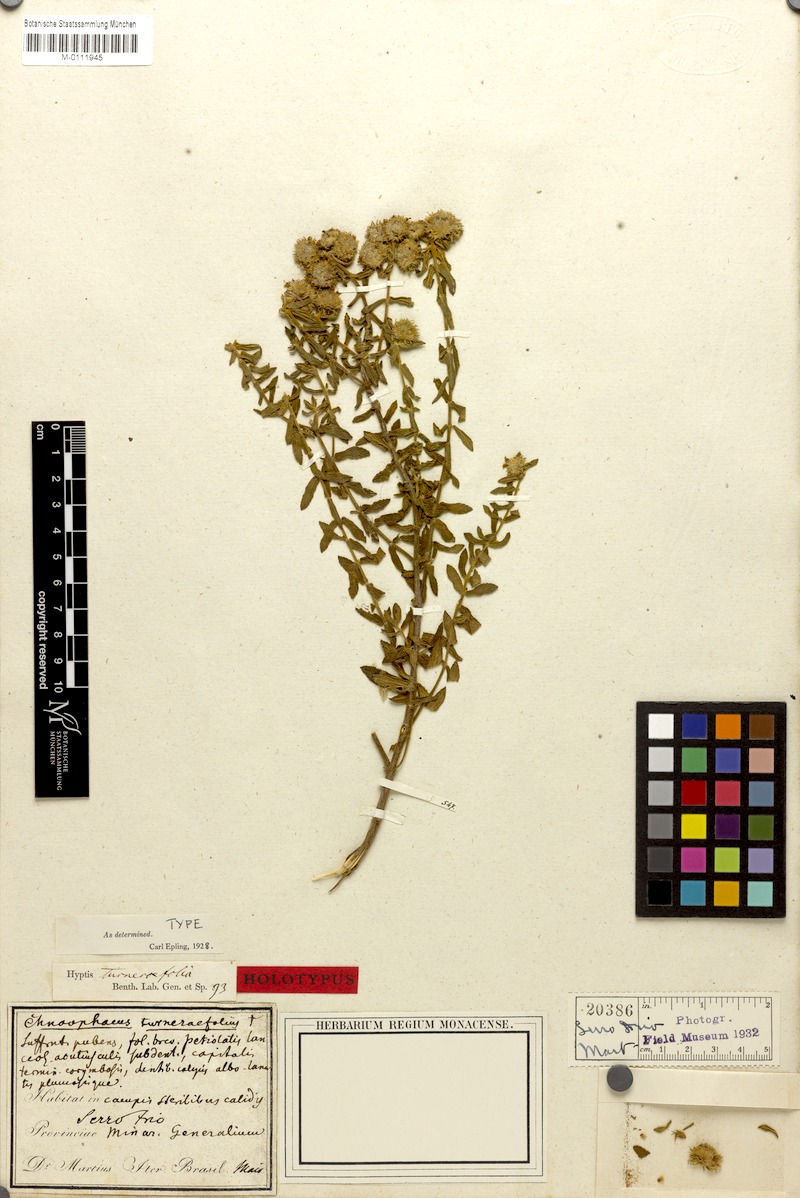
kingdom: Plantae
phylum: Tracheophyta
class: Magnoliopsida
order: Lamiales
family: Lamiaceae
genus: Hyptis
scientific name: Hyptis
